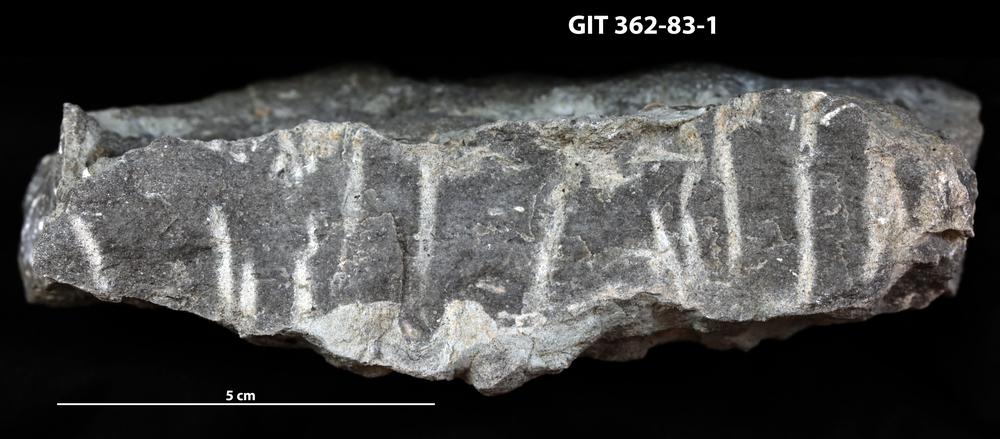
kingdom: Animalia
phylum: Mollusca
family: Siphonichnidae
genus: Skolithos
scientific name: Skolithos
